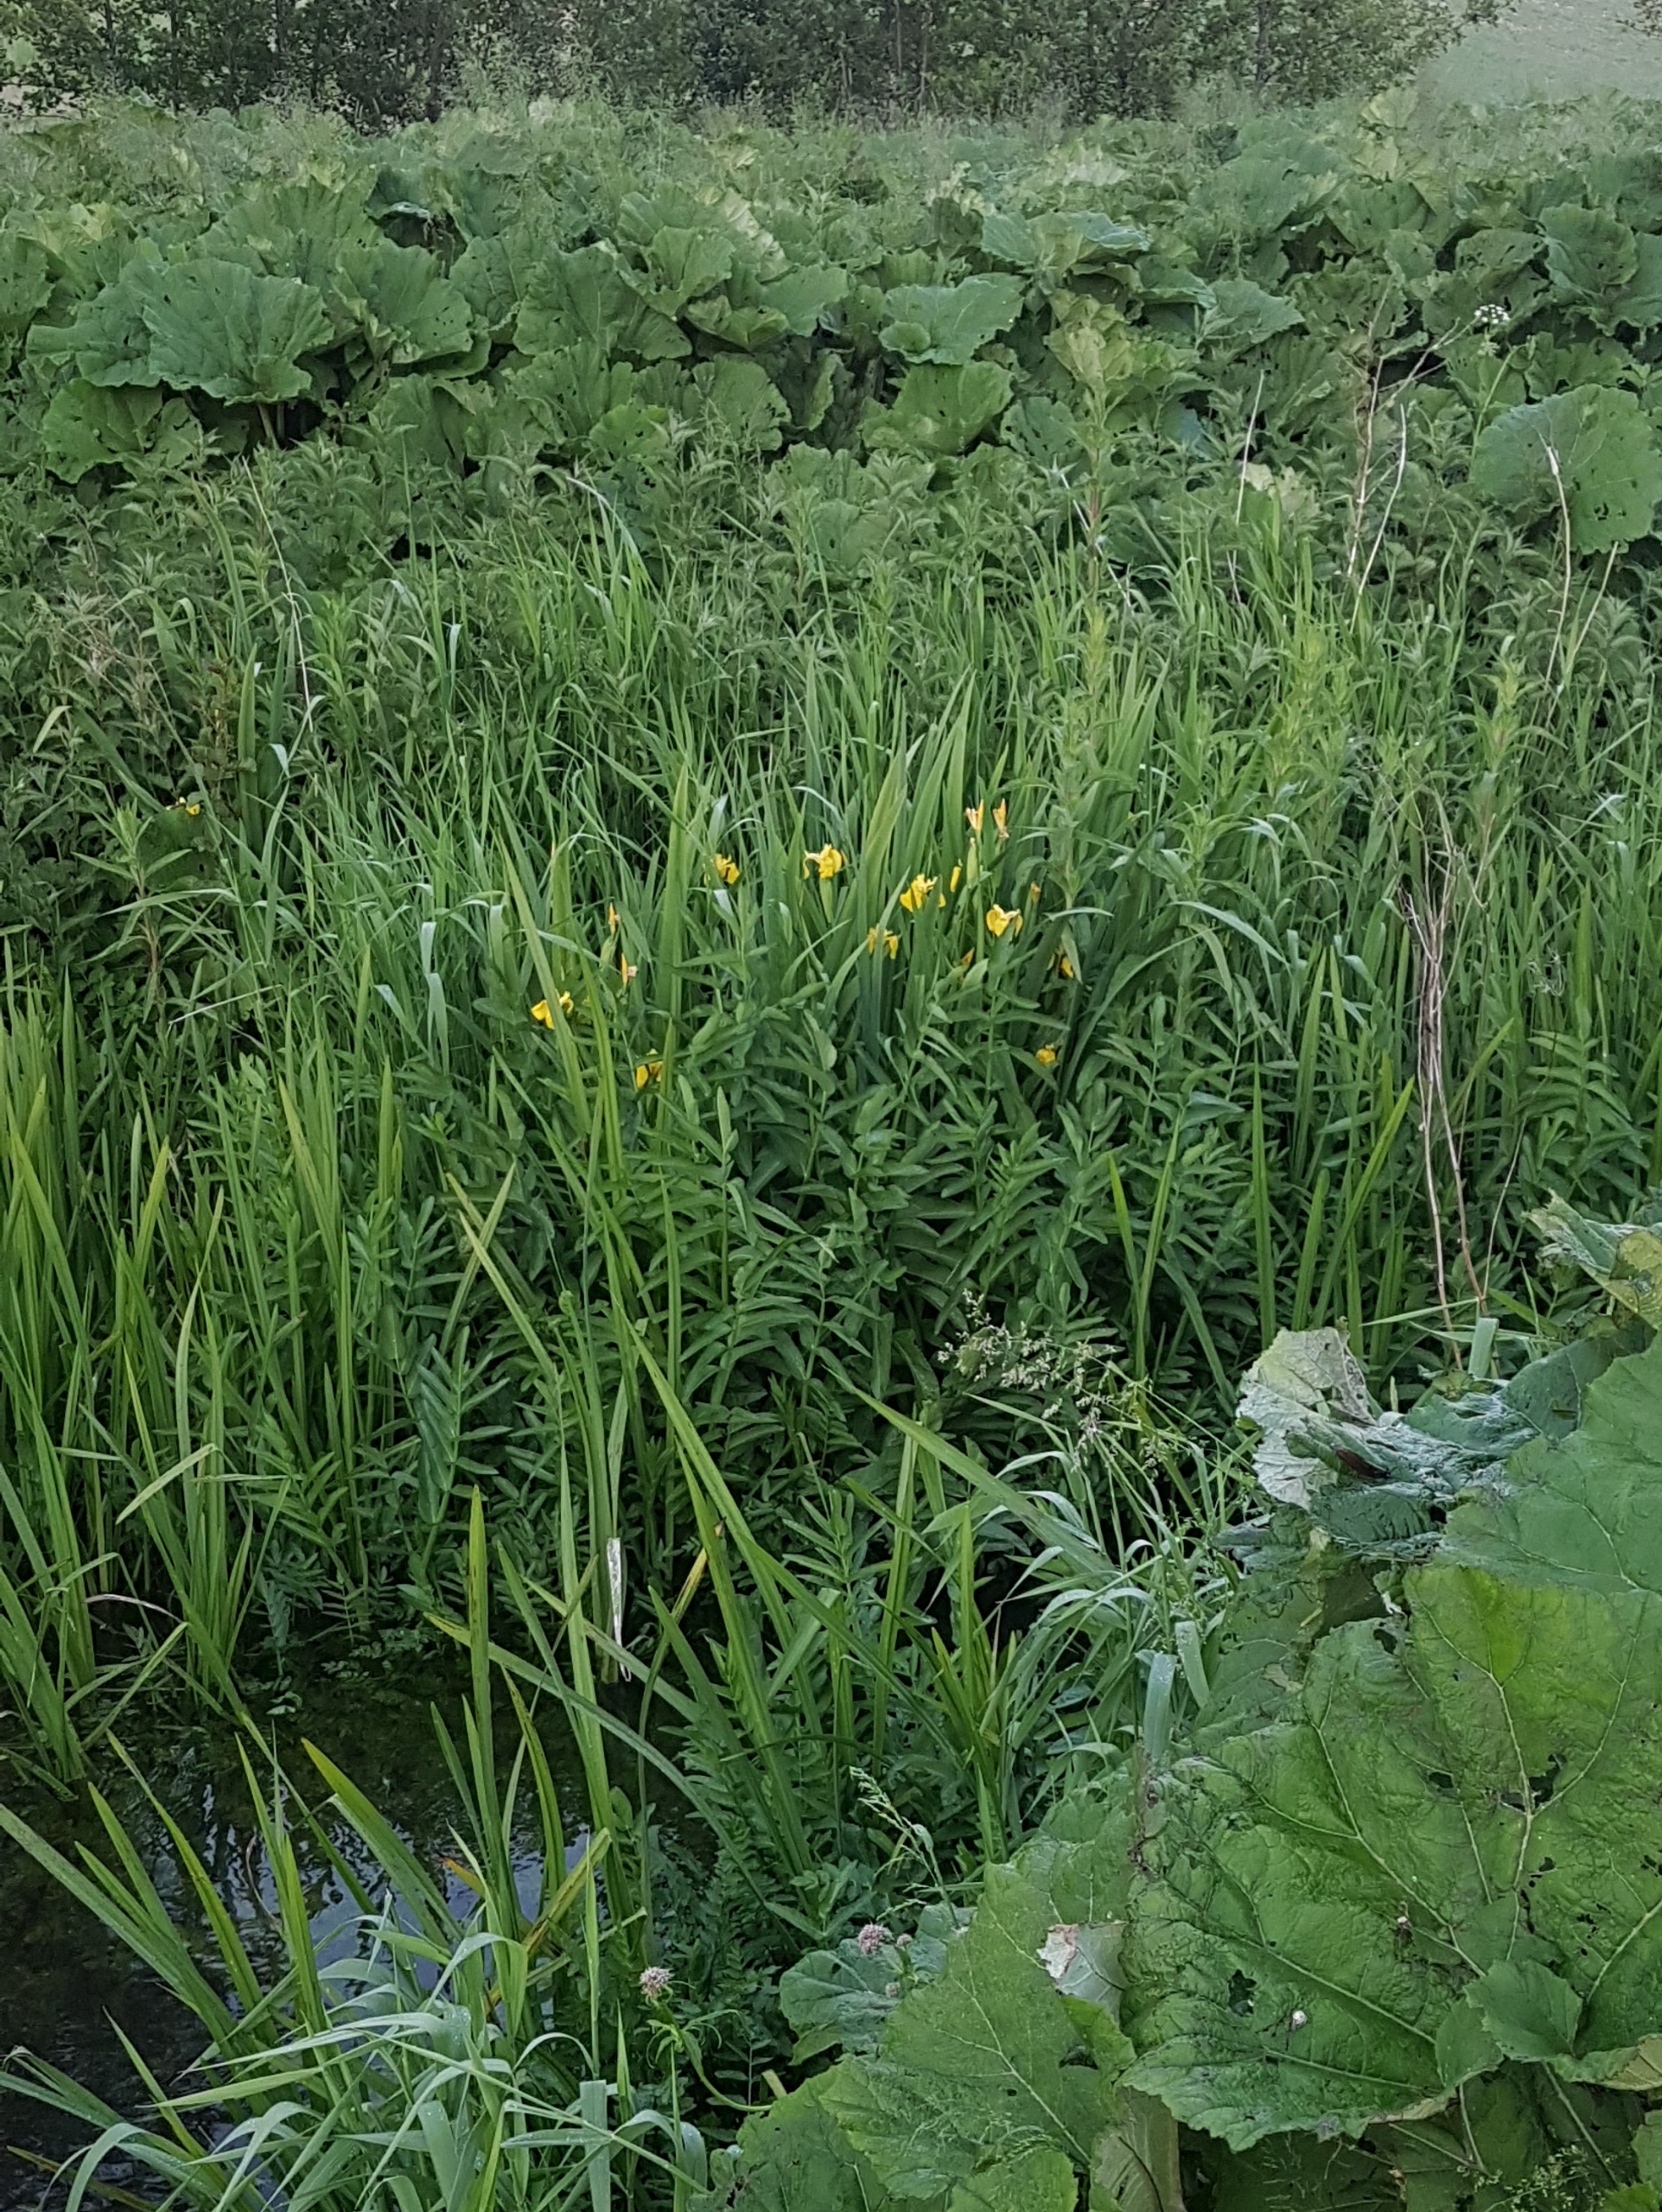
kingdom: Plantae
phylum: Tracheophyta
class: Liliopsida
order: Asparagales
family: Iridaceae
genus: Iris
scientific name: Iris pseudacorus
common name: Gul iris
